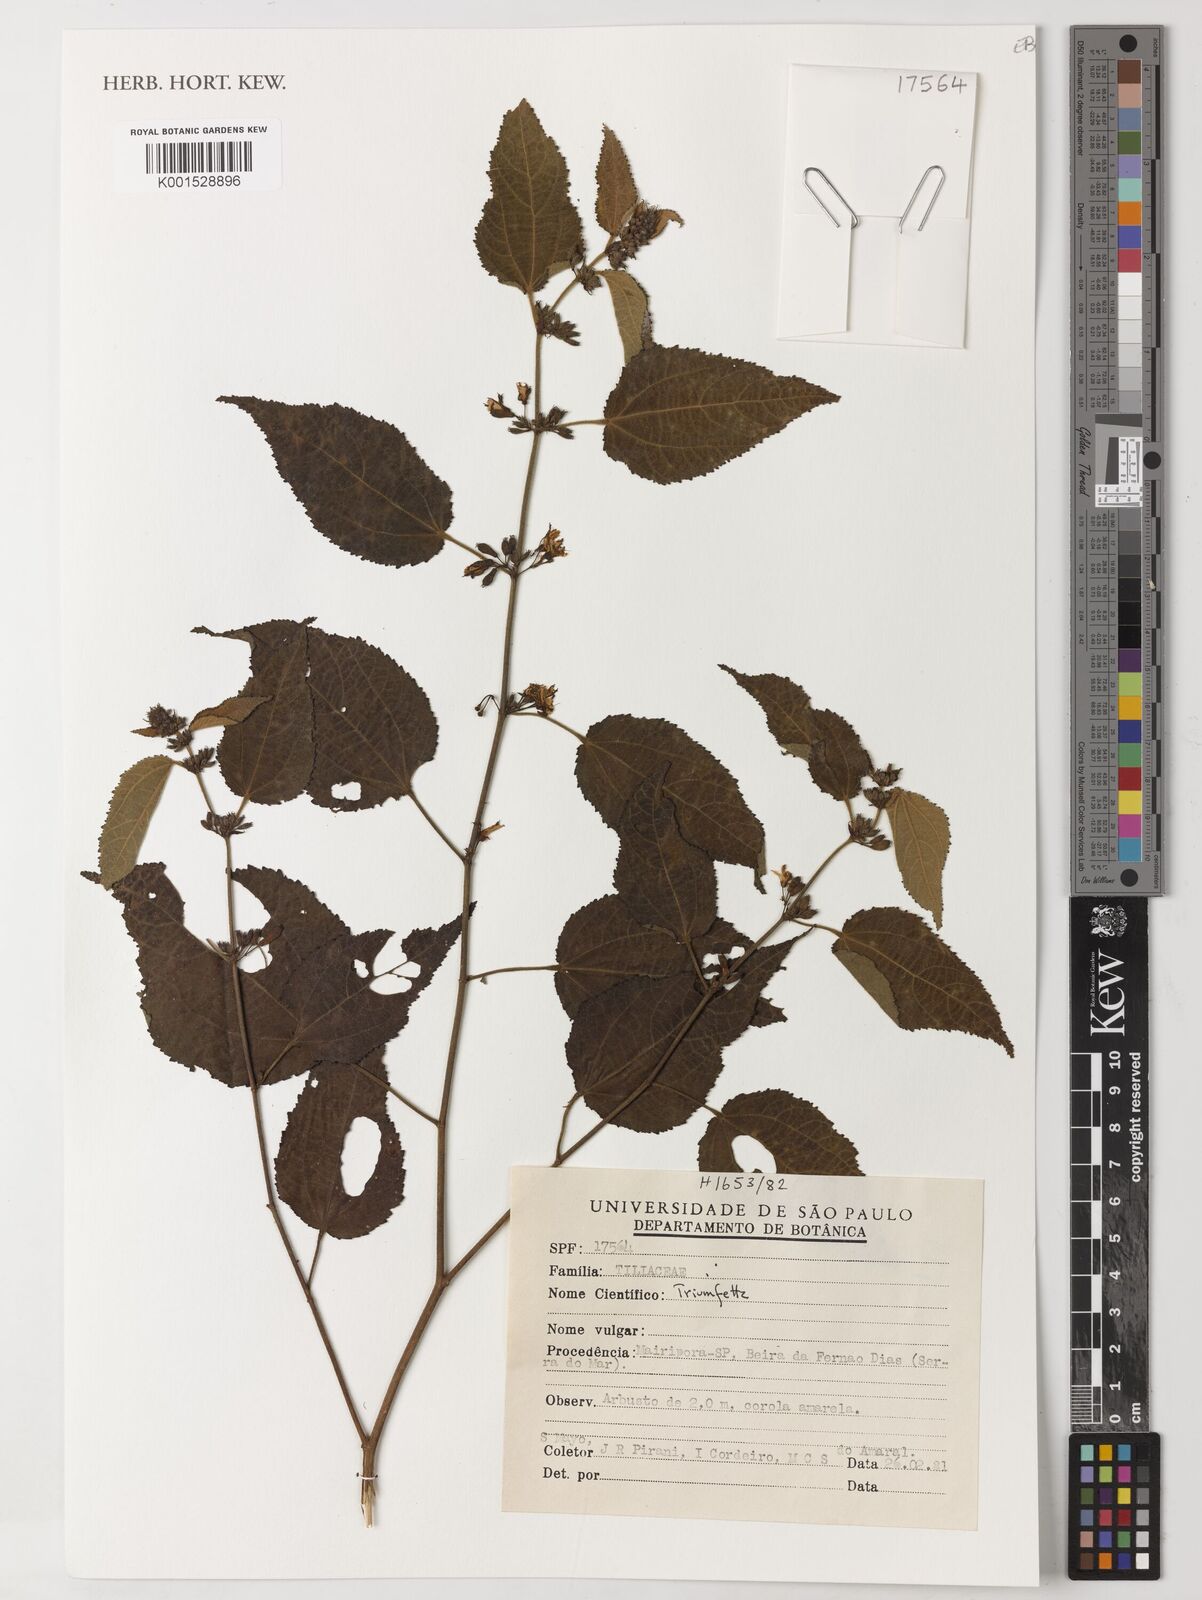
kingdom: Plantae
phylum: Tracheophyta
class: Magnoliopsida
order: Malvales
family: Malvaceae
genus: Triumfetta
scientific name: Triumfetta
